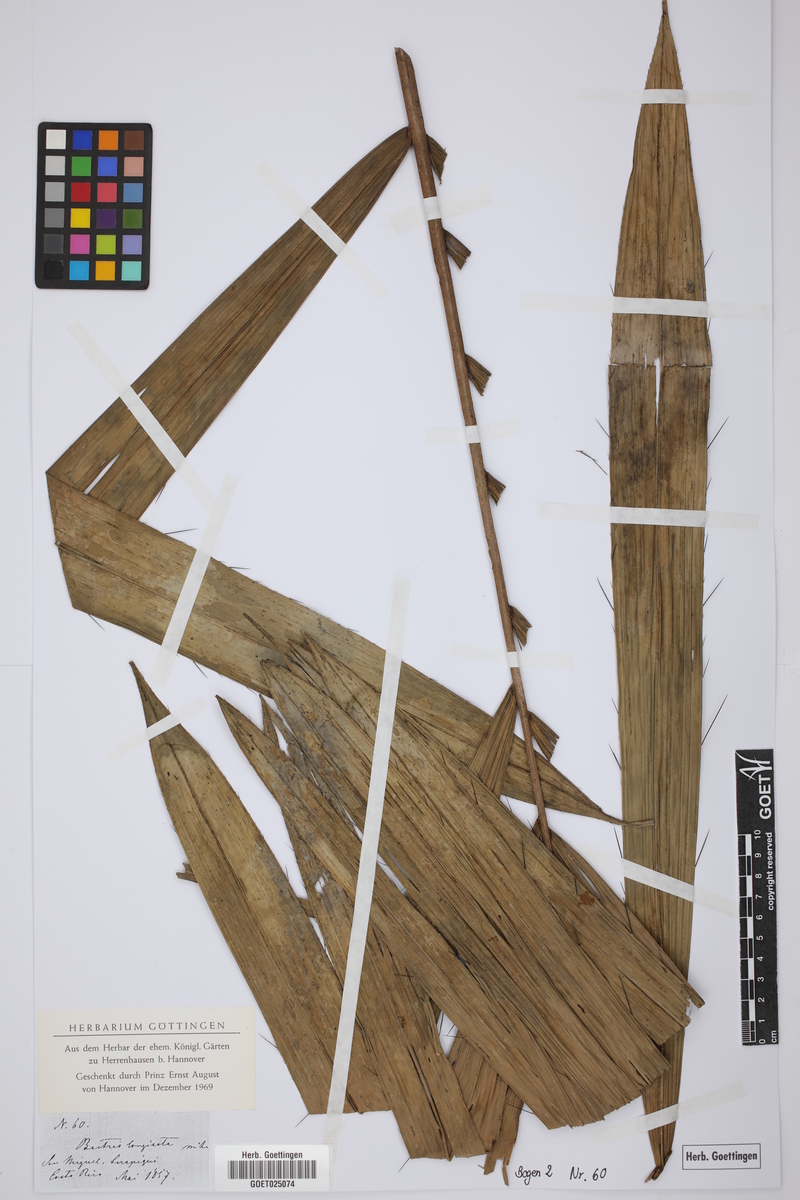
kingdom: Plantae
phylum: Tracheophyta
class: Liliopsida
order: Arecales
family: Arecaceae
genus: Bactris
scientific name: Bactris longiseta
